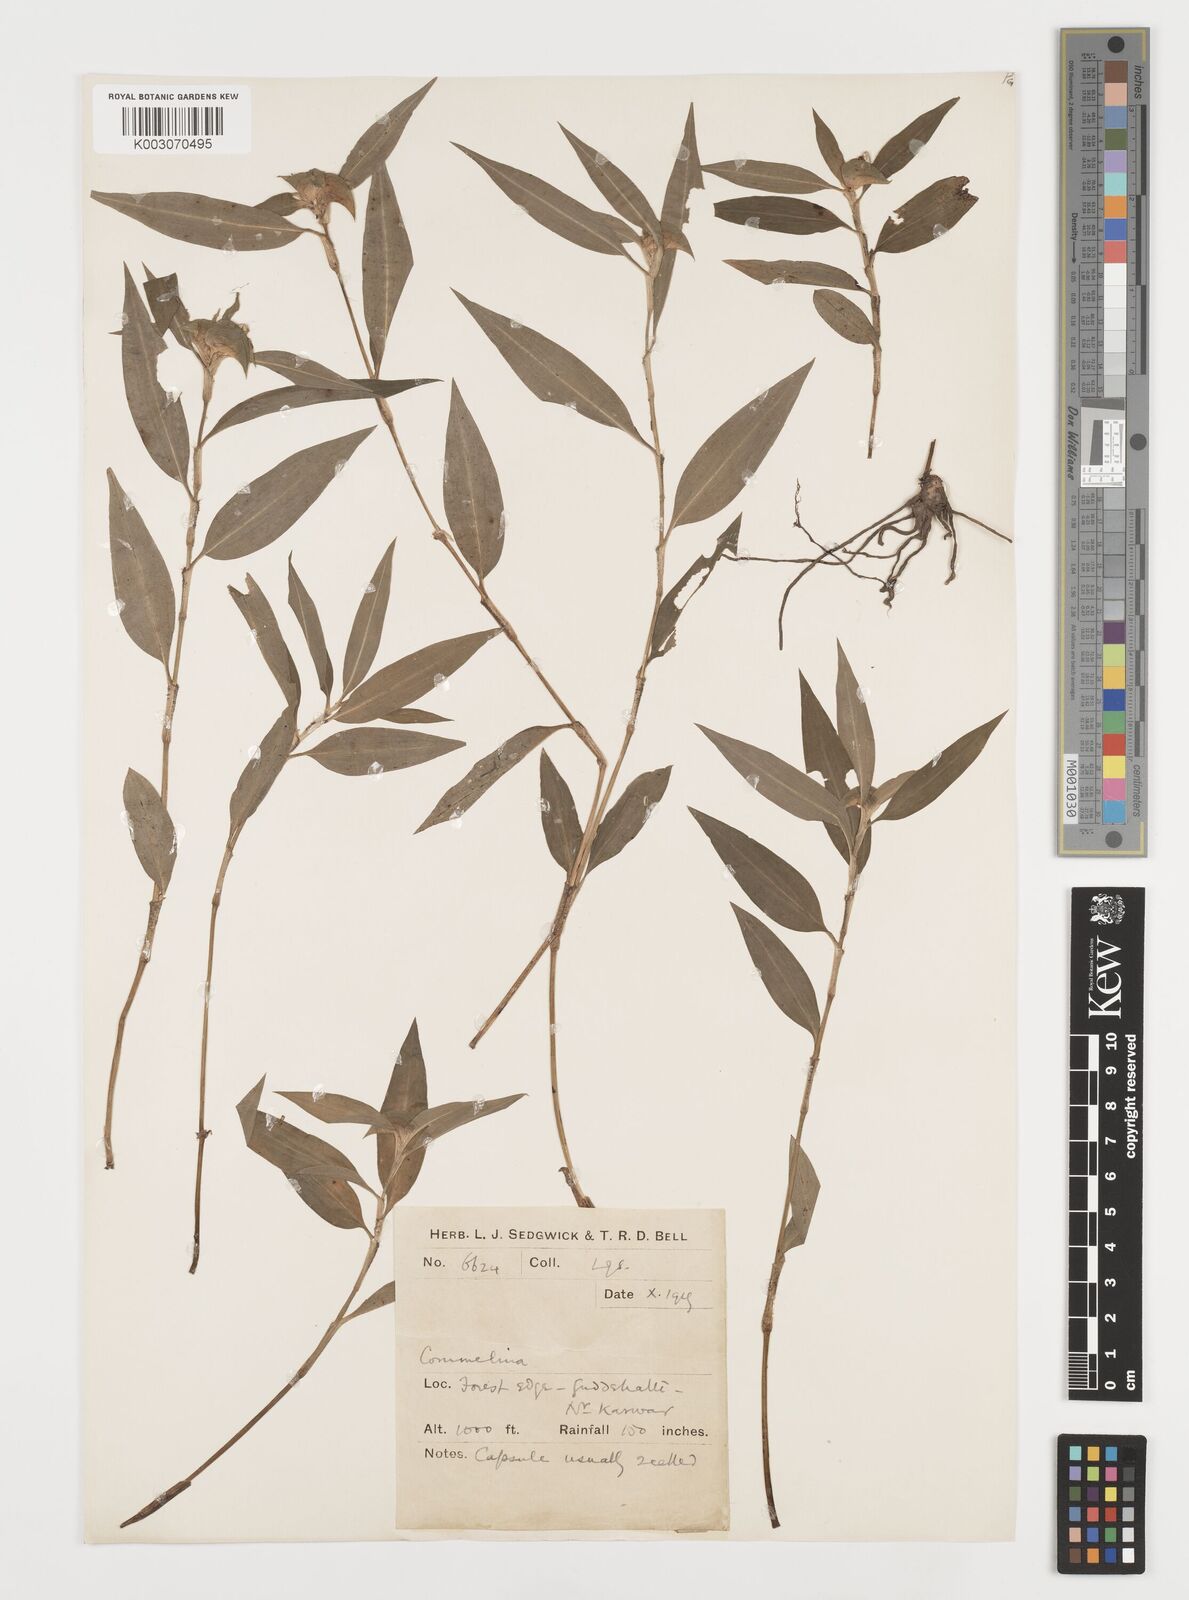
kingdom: Plantae
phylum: Tracheophyta
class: Liliopsida
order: Commelinales
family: Commelinaceae
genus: Commelina
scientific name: Commelina
